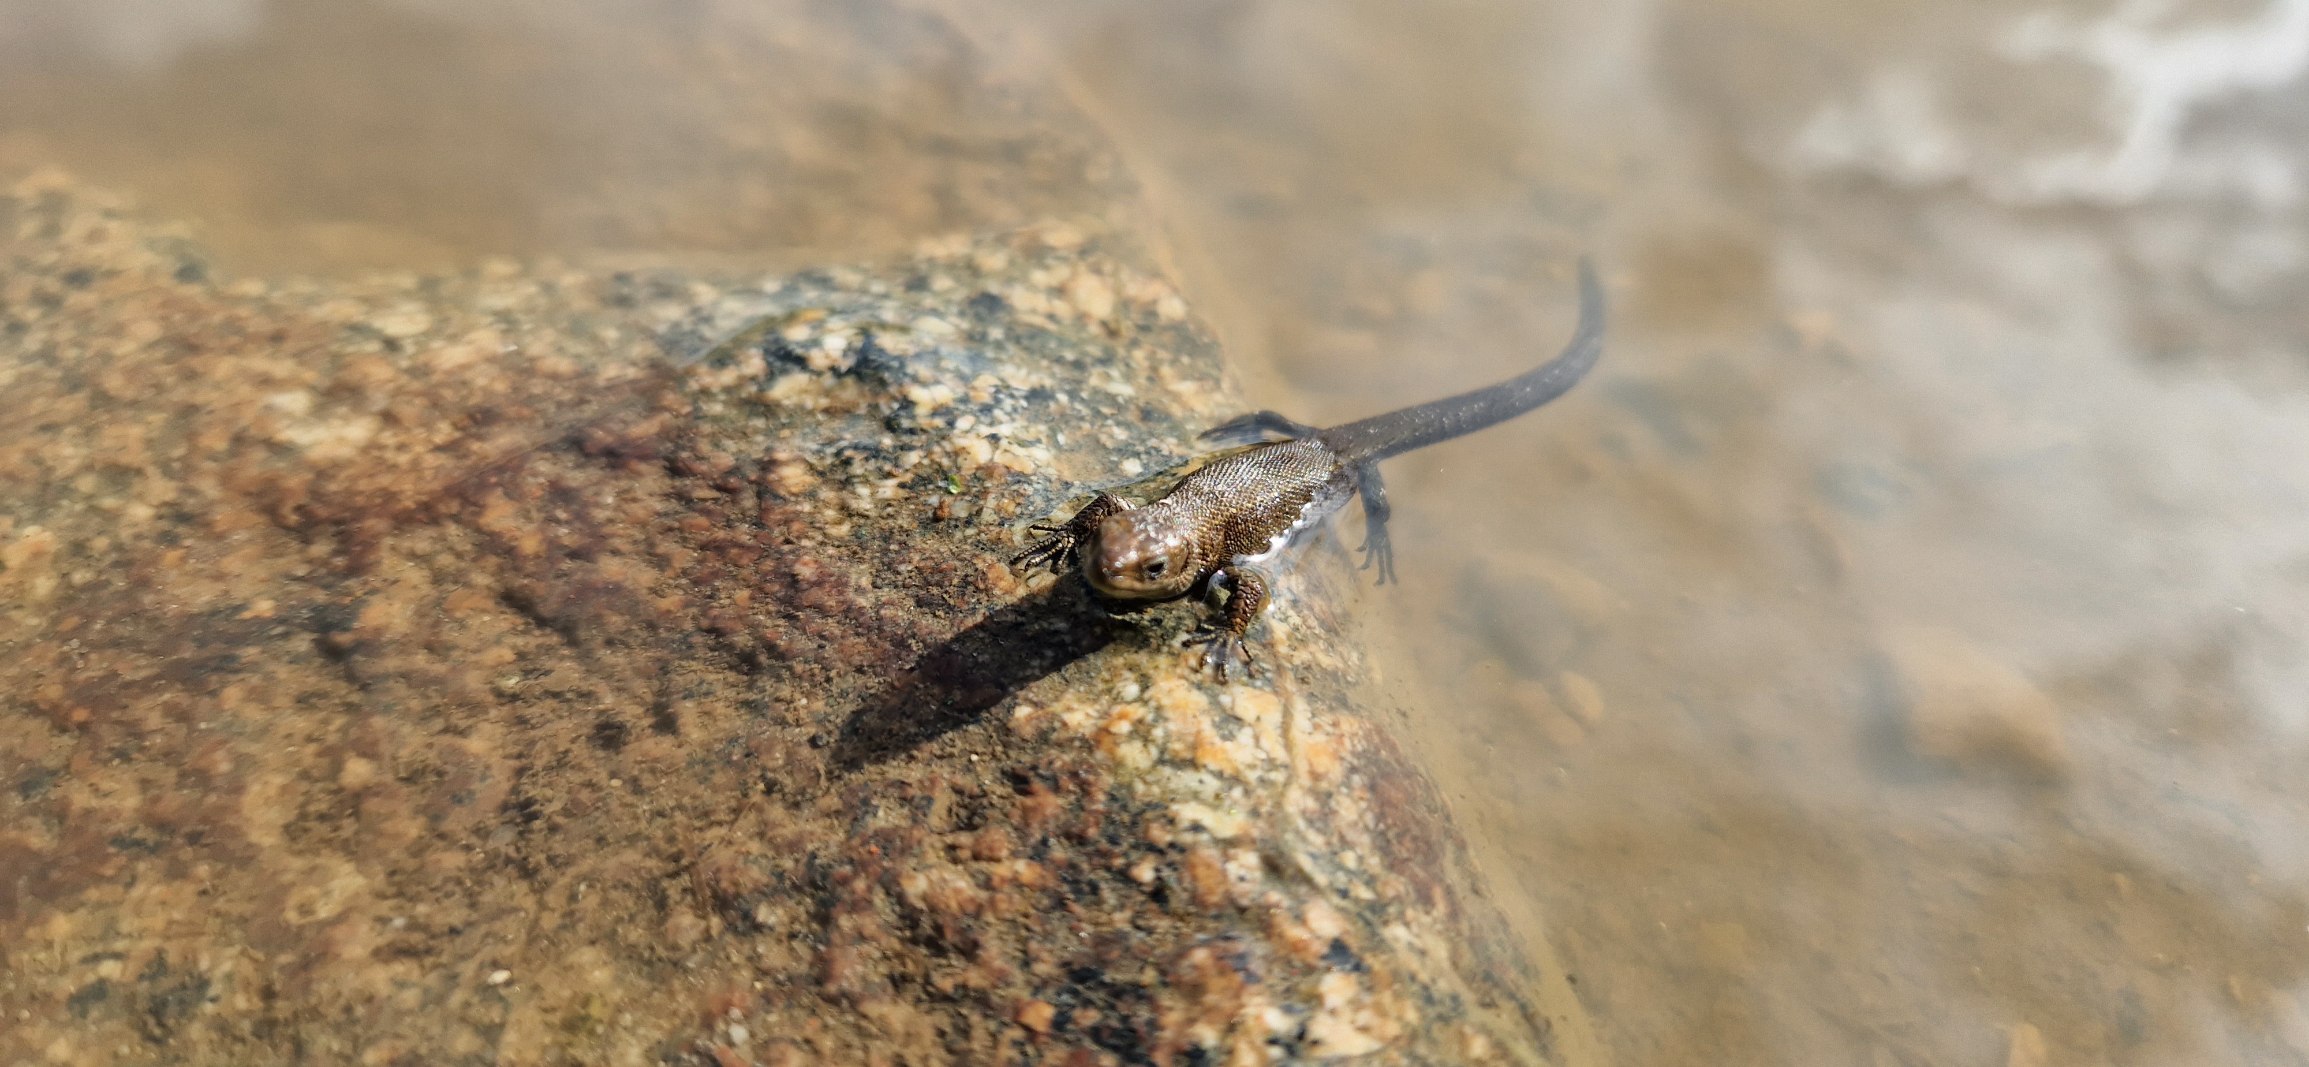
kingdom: Animalia
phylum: Chordata
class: Squamata
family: Lacertidae
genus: Zootoca
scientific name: Zootoca vivipara
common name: Skovfirben
